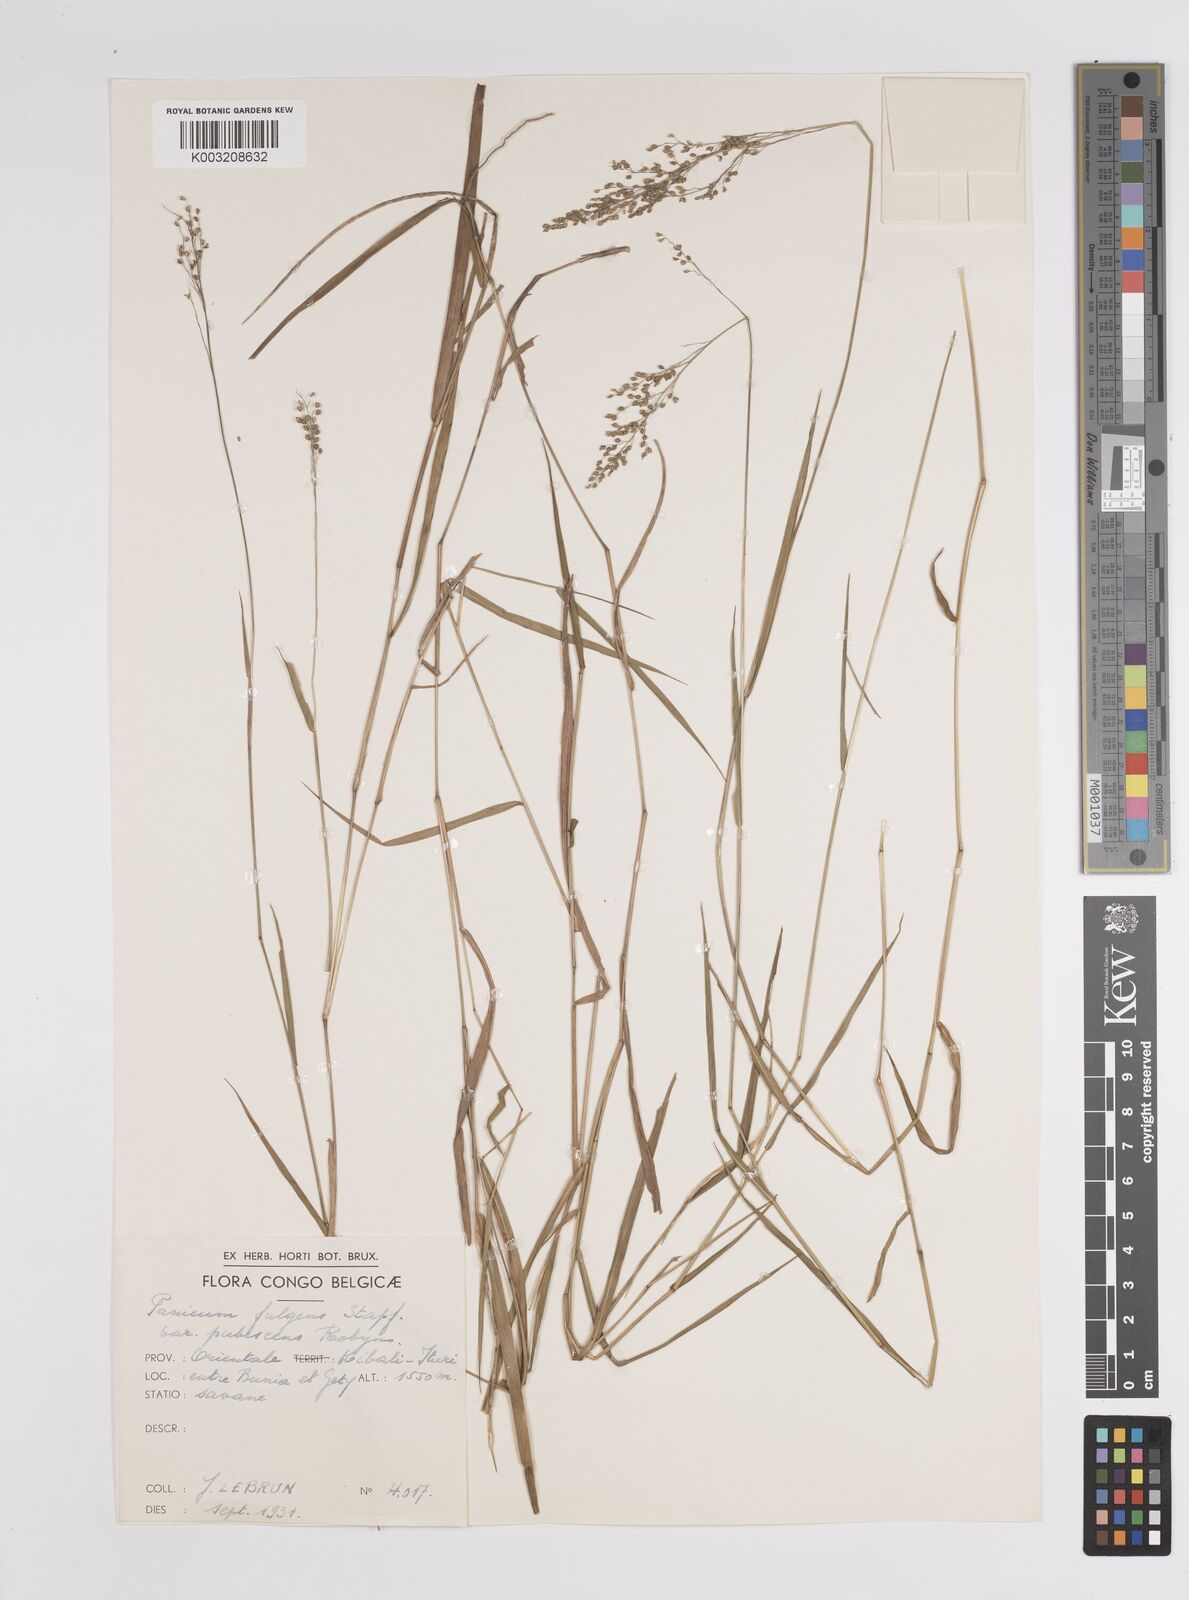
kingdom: Plantae
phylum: Tracheophyta
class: Liliopsida
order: Poales
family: Poaceae
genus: Trichanthecium
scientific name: Trichanthecium nervatum
